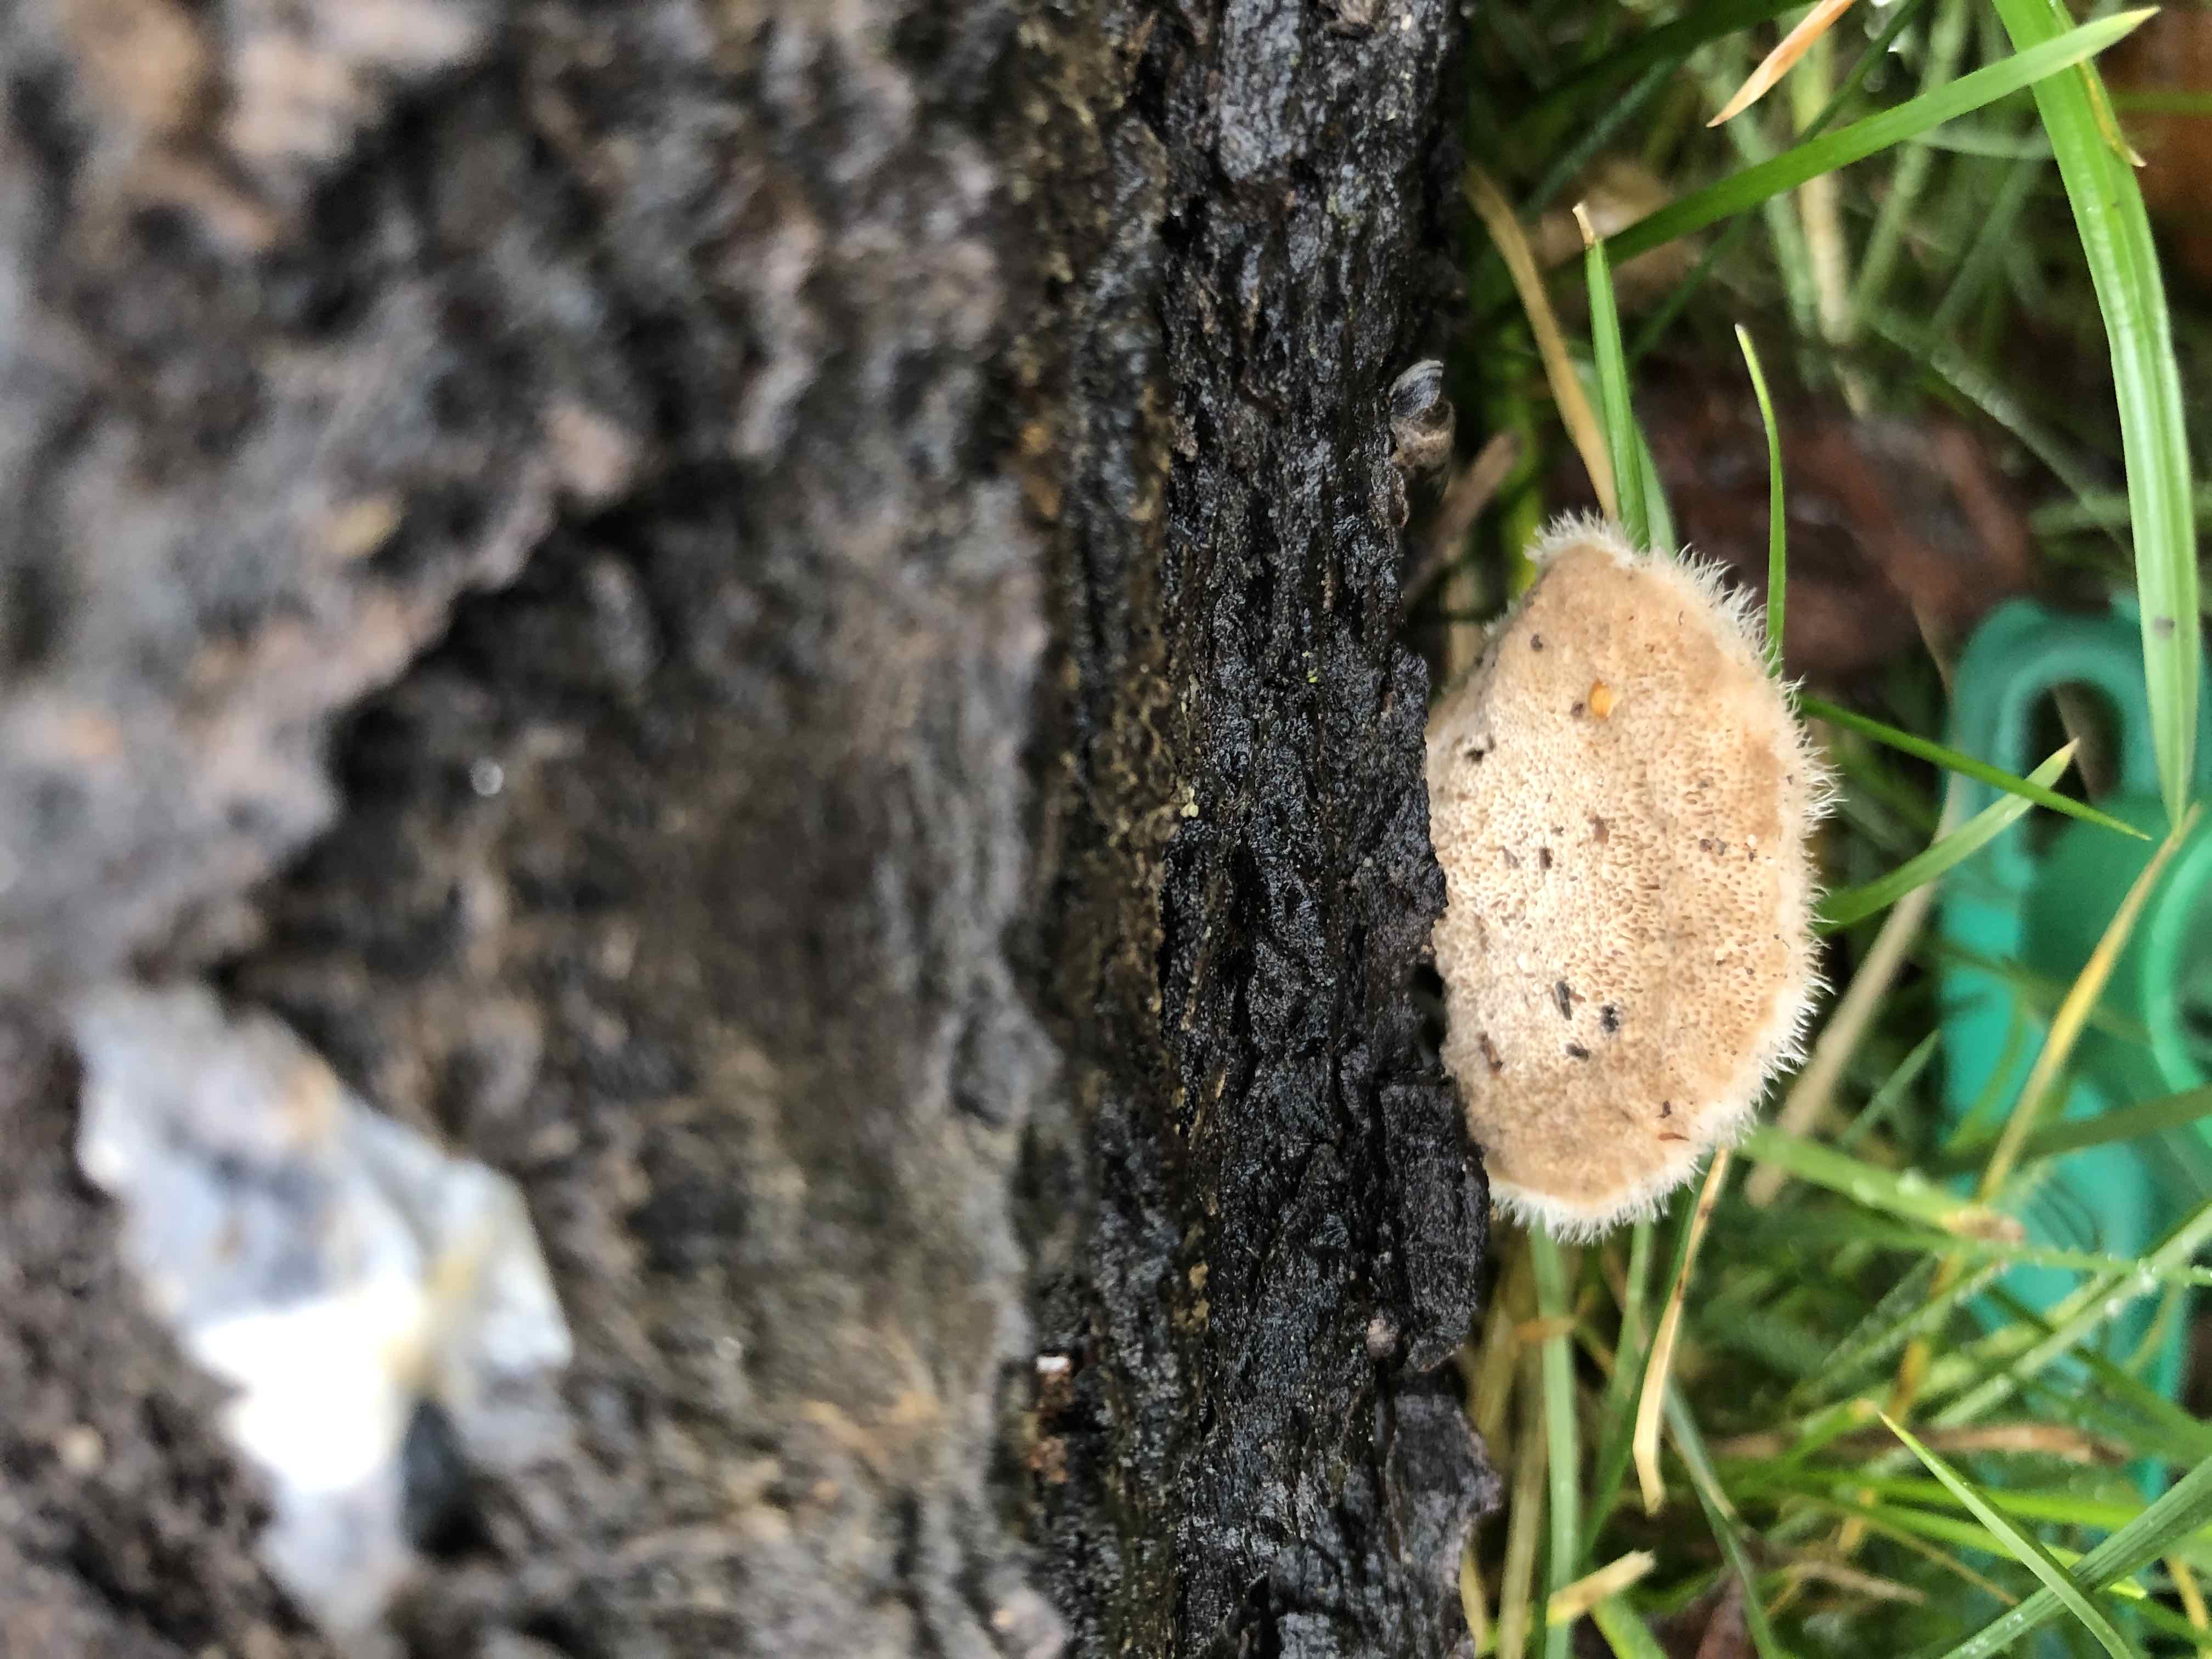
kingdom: Fungi
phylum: Basidiomycota
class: Agaricomycetes
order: Polyporales
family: Polyporaceae
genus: Trametes
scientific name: Trametes hirsuta
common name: håret læderporesvamp
